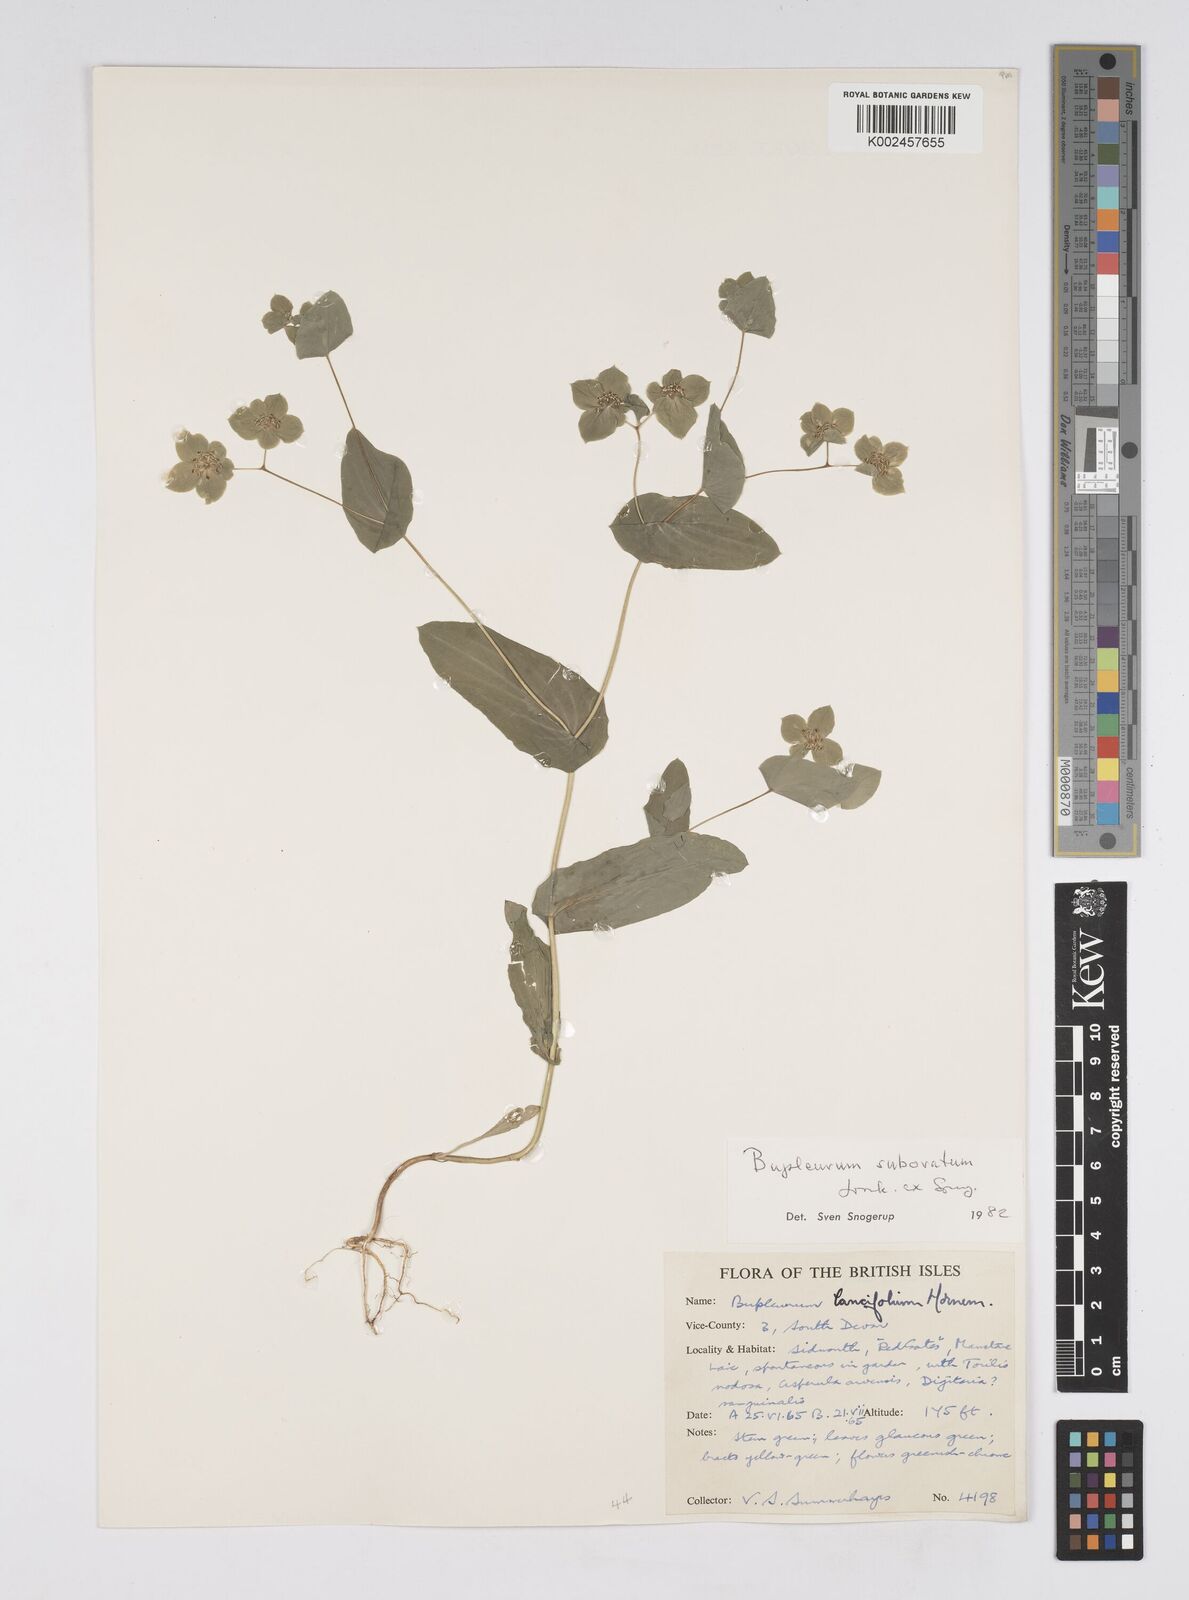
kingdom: Plantae
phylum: Tracheophyta
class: Magnoliopsida
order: Apiales
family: Apiaceae
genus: Bupleurum
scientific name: Bupleurum subovatum
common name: False thorow-wax
